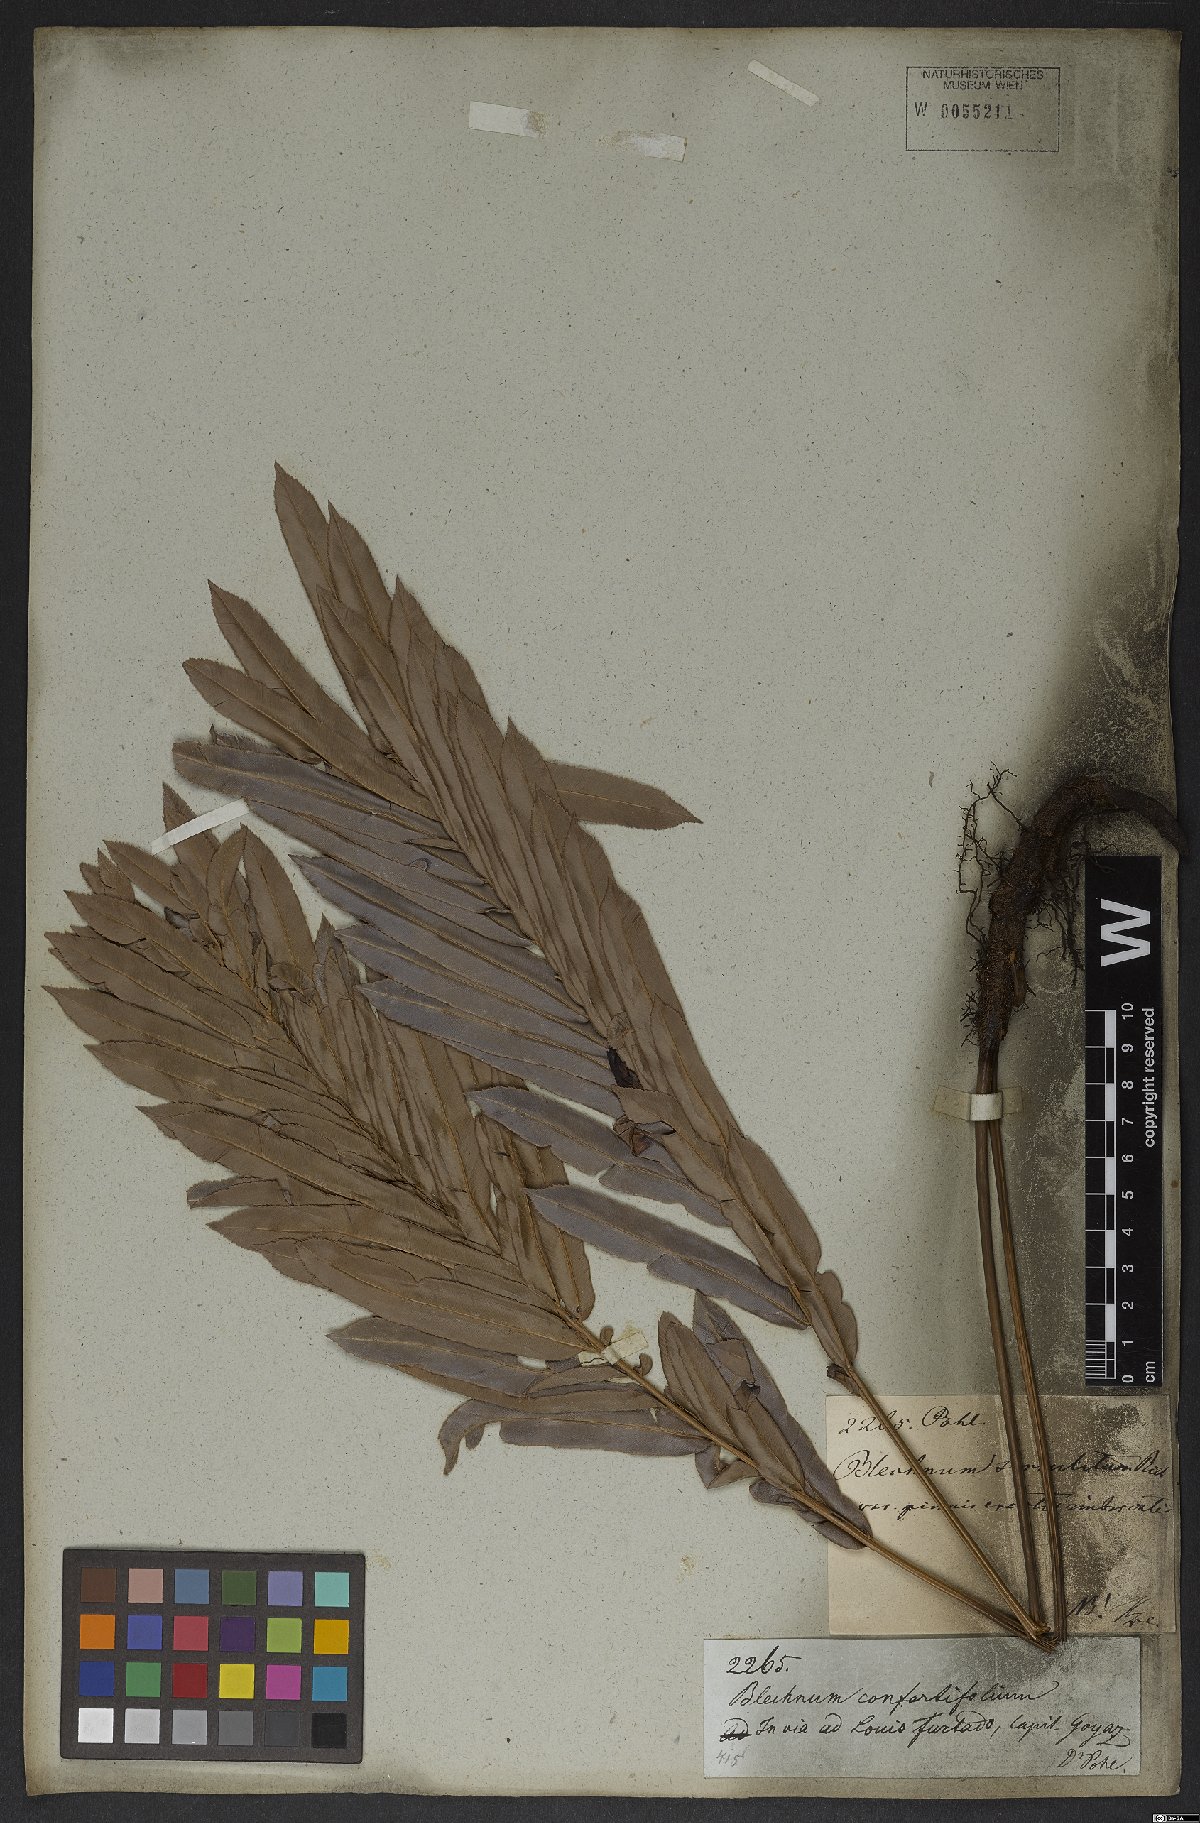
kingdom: Plantae
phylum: Tracheophyta
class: Polypodiopsida
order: Polypodiales
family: Blechnaceae
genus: Telmatoblechnum
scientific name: Telmatoblechnum serrulatum
